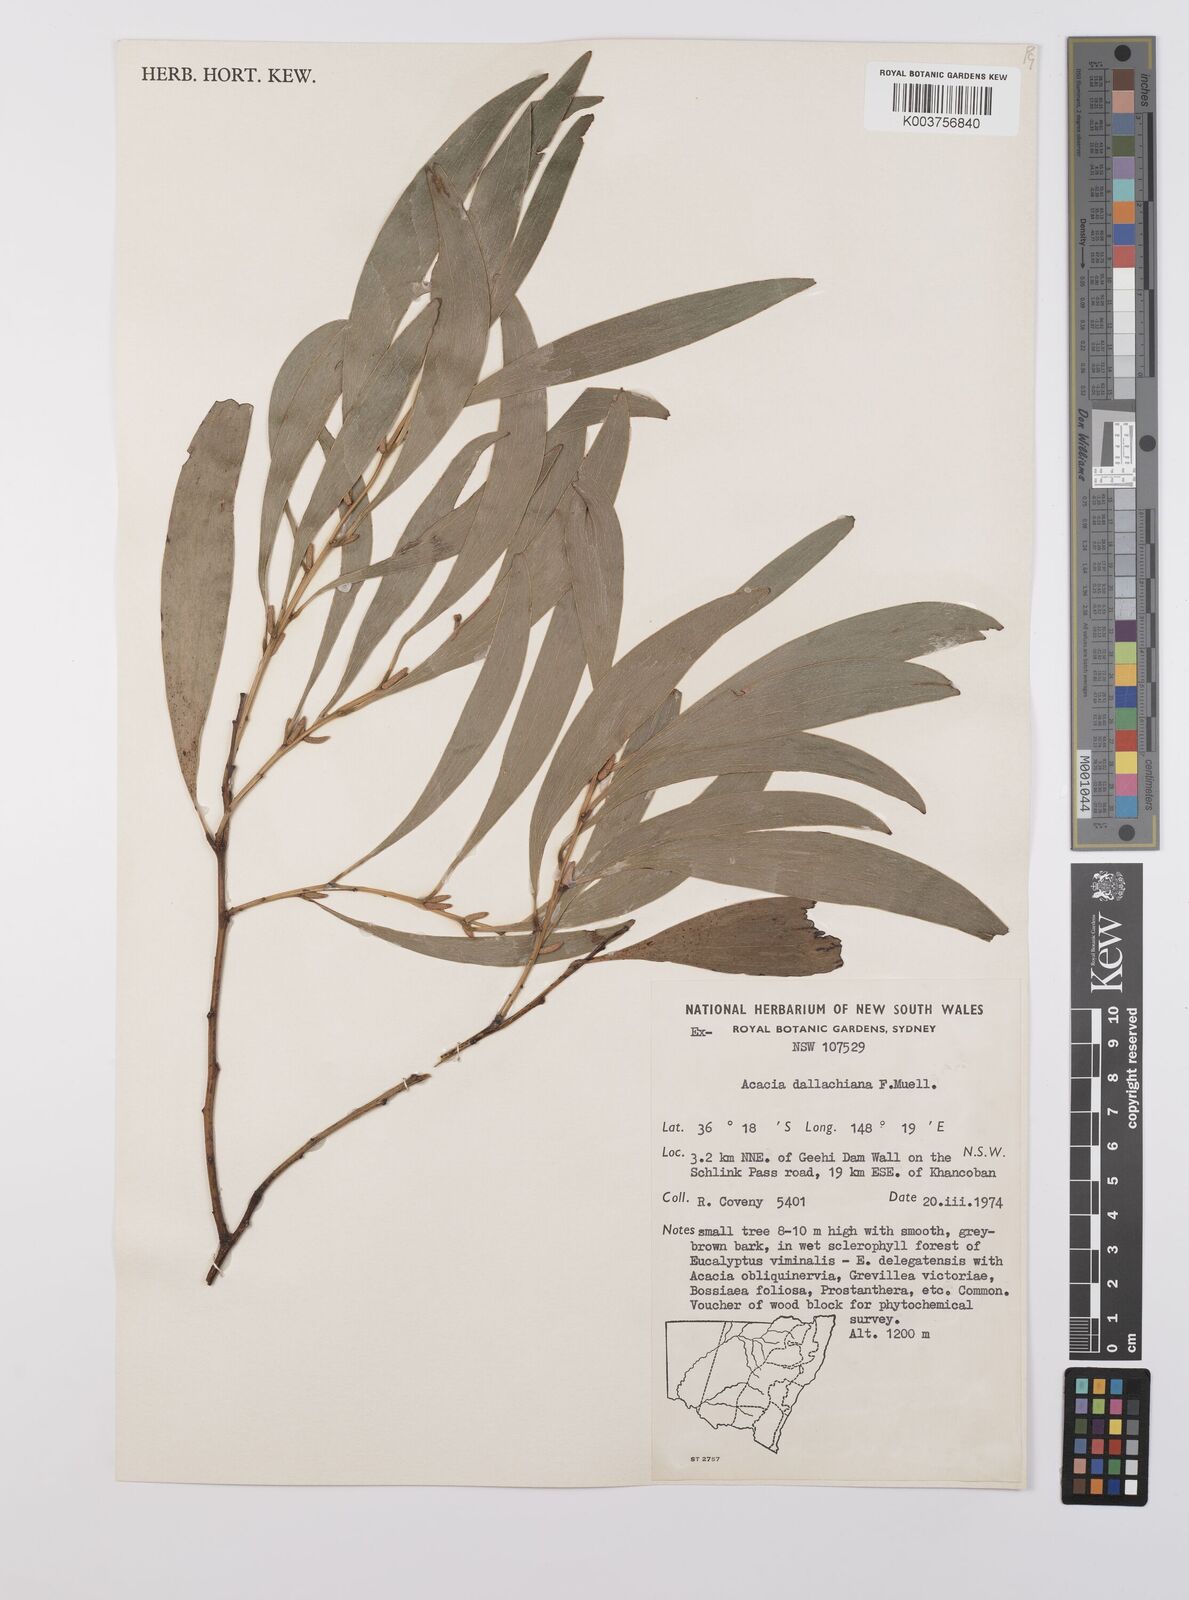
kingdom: Plantae
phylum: Tracheophyta
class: Magnoliopsida
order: Fabales
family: Fabaceae
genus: Acacia
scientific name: Acacia dallachiana
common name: Catkin wattle
